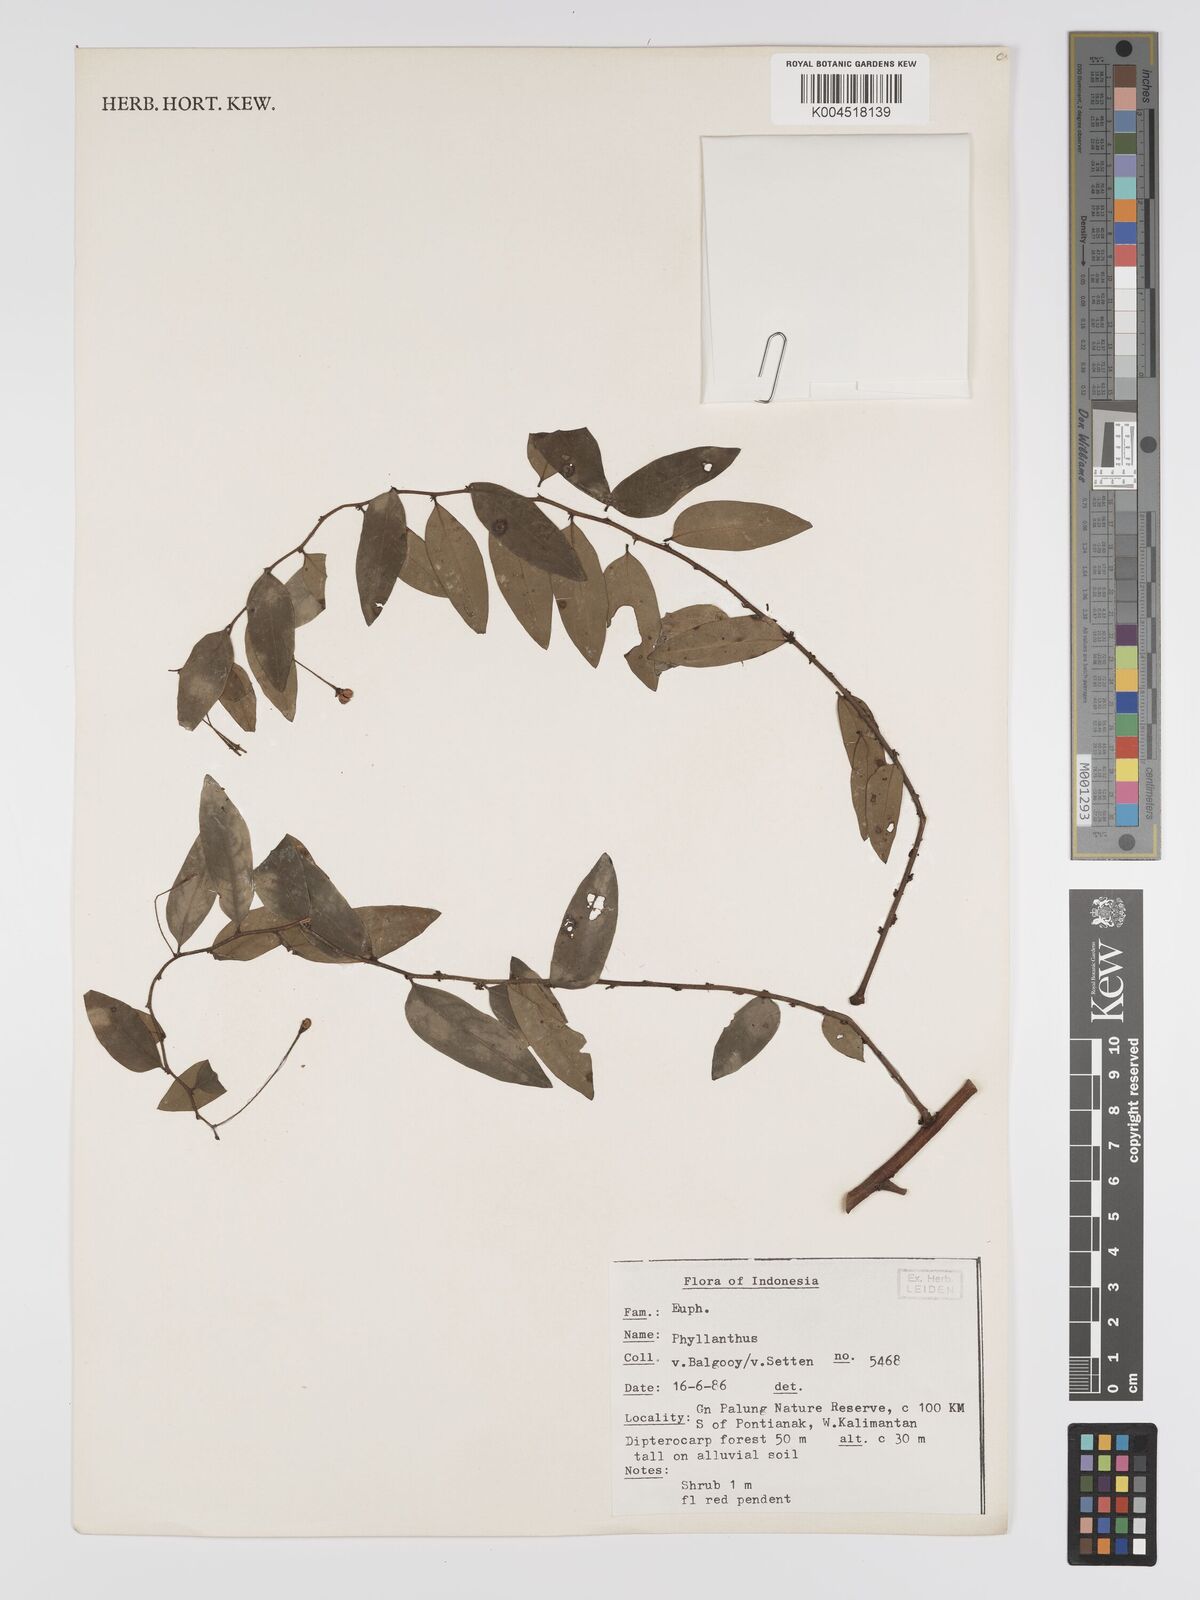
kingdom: Plantae
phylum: Tracheophyta
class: Magnoliopsida
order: Malpighiales
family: Phyllanthaceae
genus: Phyllanthus
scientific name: Phyllanthus
